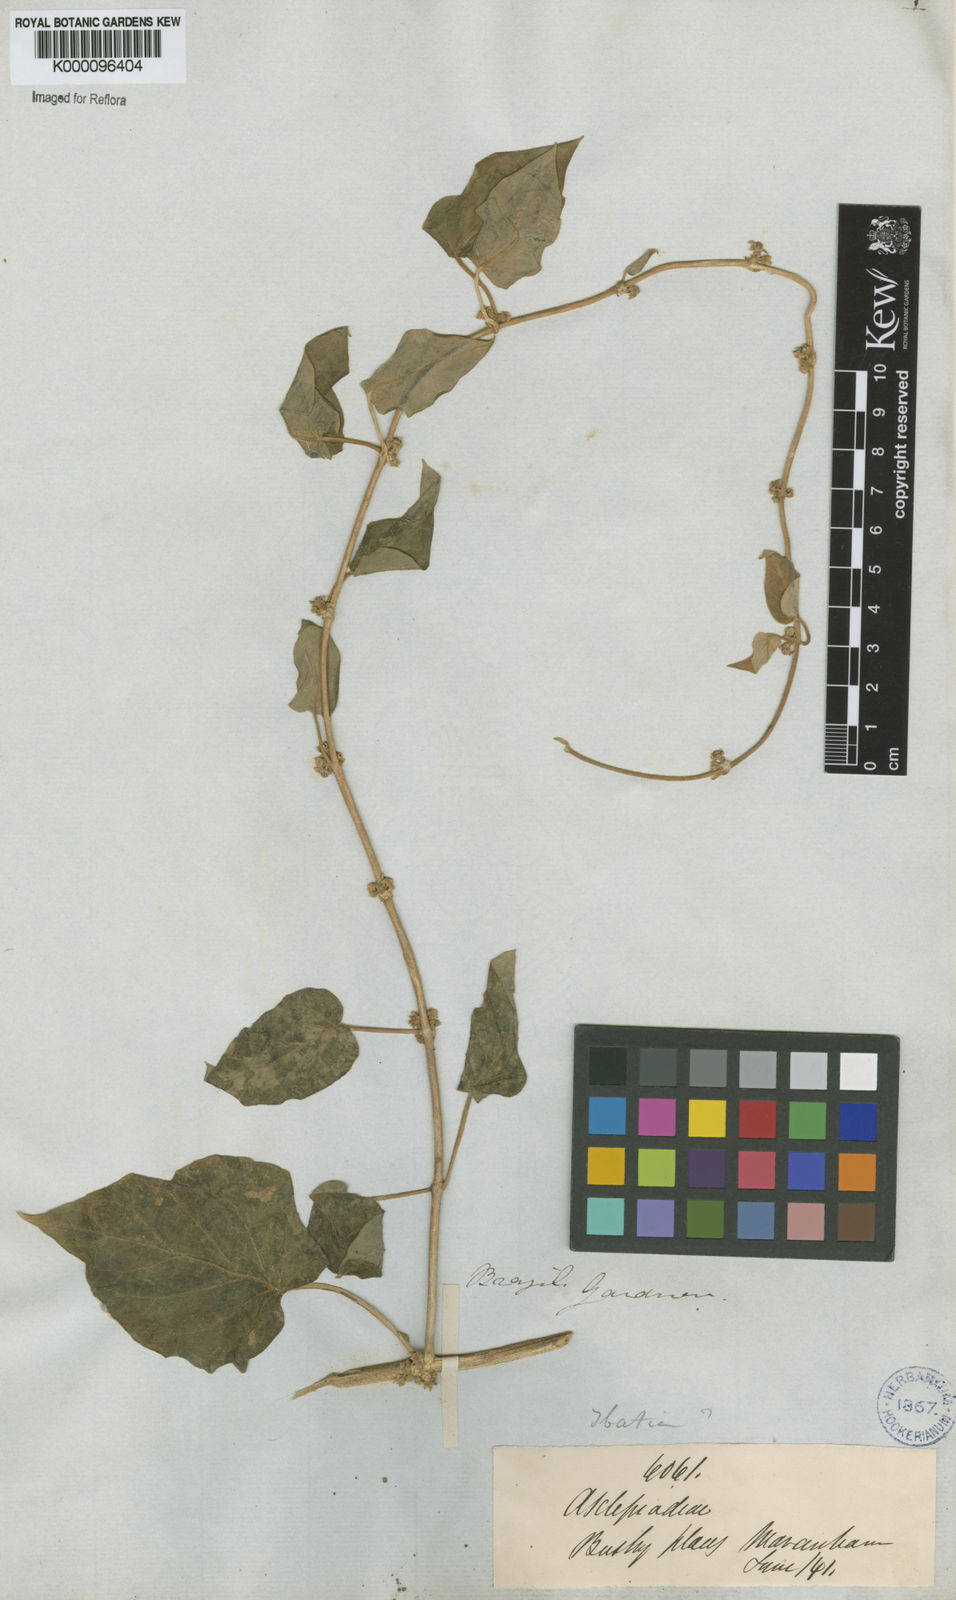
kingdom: Plantae
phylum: Tracheophyta
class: Magnoliopsida
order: Gentianales
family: Apocynaceae
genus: Matelea
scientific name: Matelea
